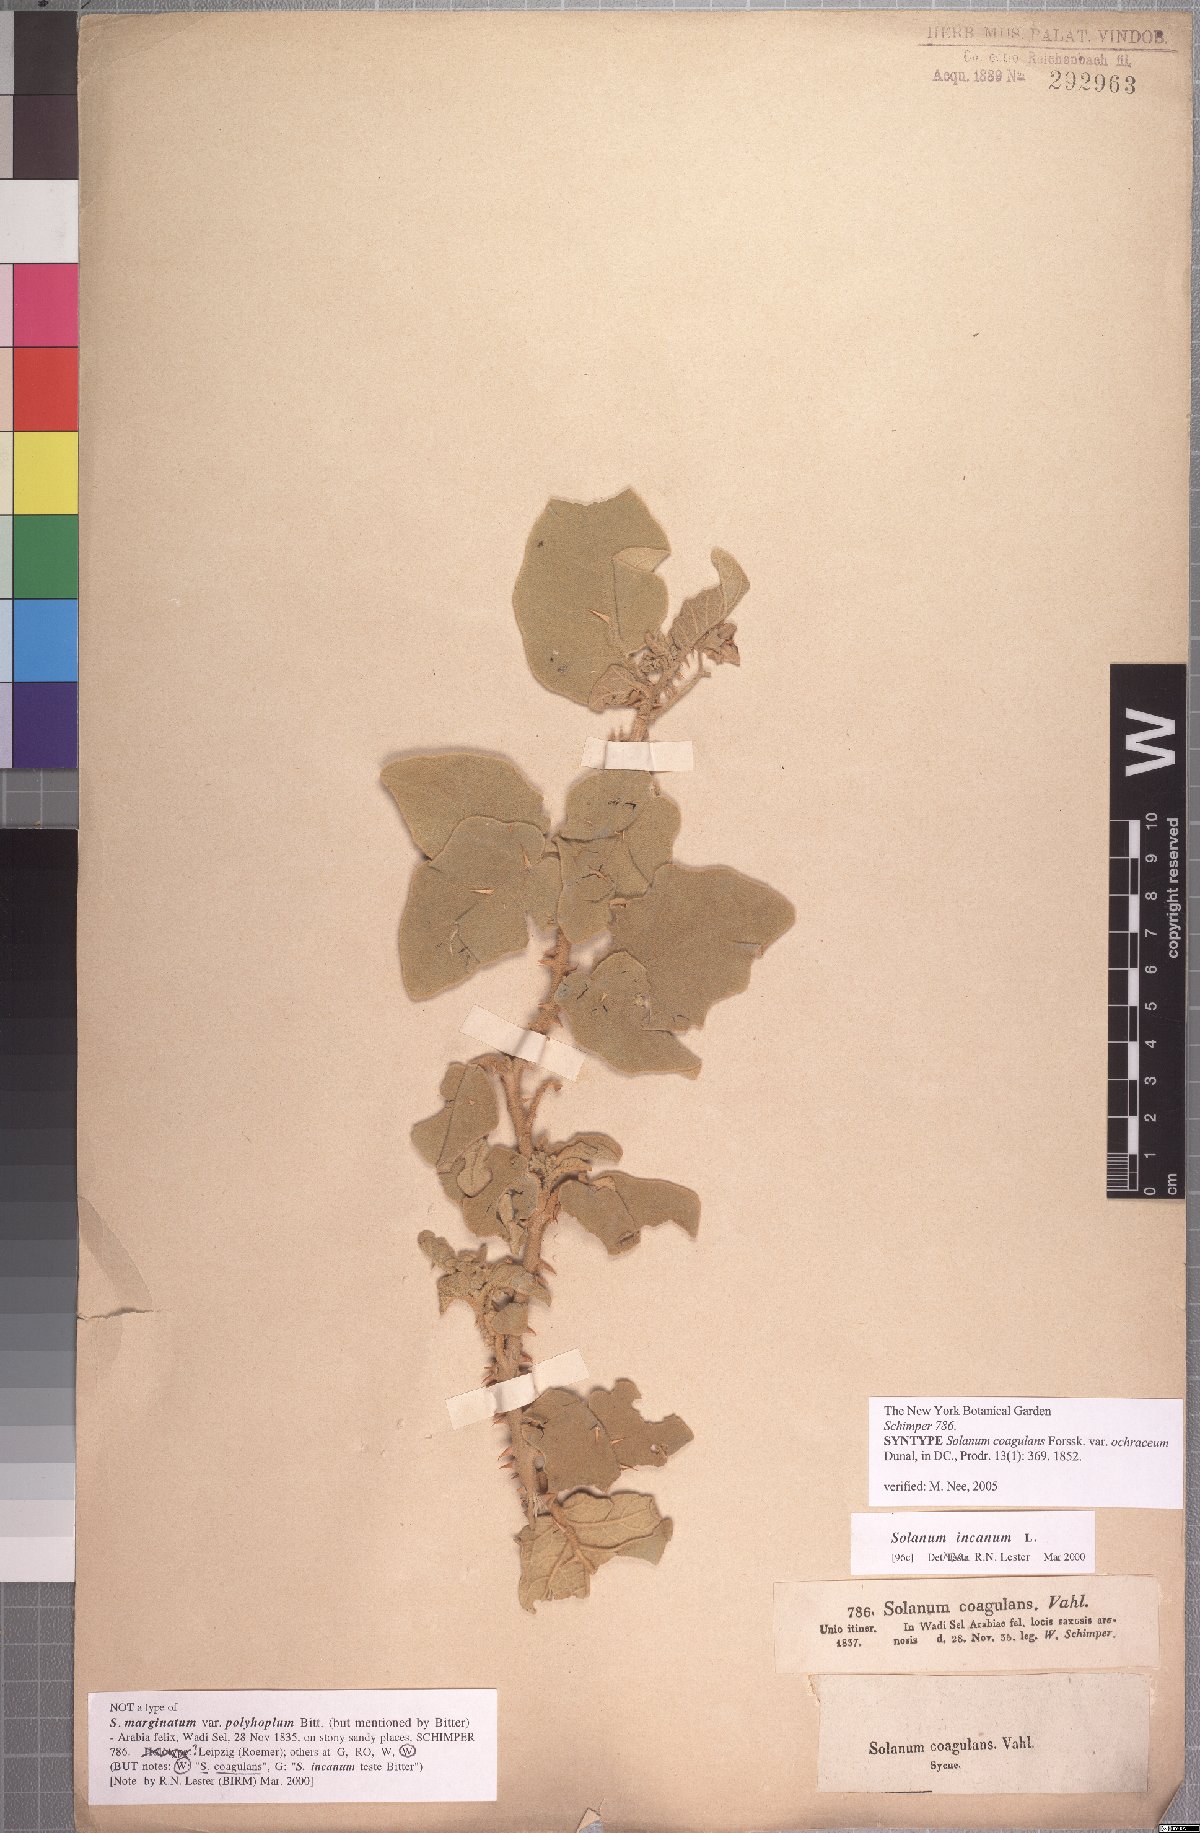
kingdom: Plantae
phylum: Tracheophyta
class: Magnoliopsida
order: Solanales
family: Solanaceae
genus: Solanum
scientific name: Solanum coagulans
